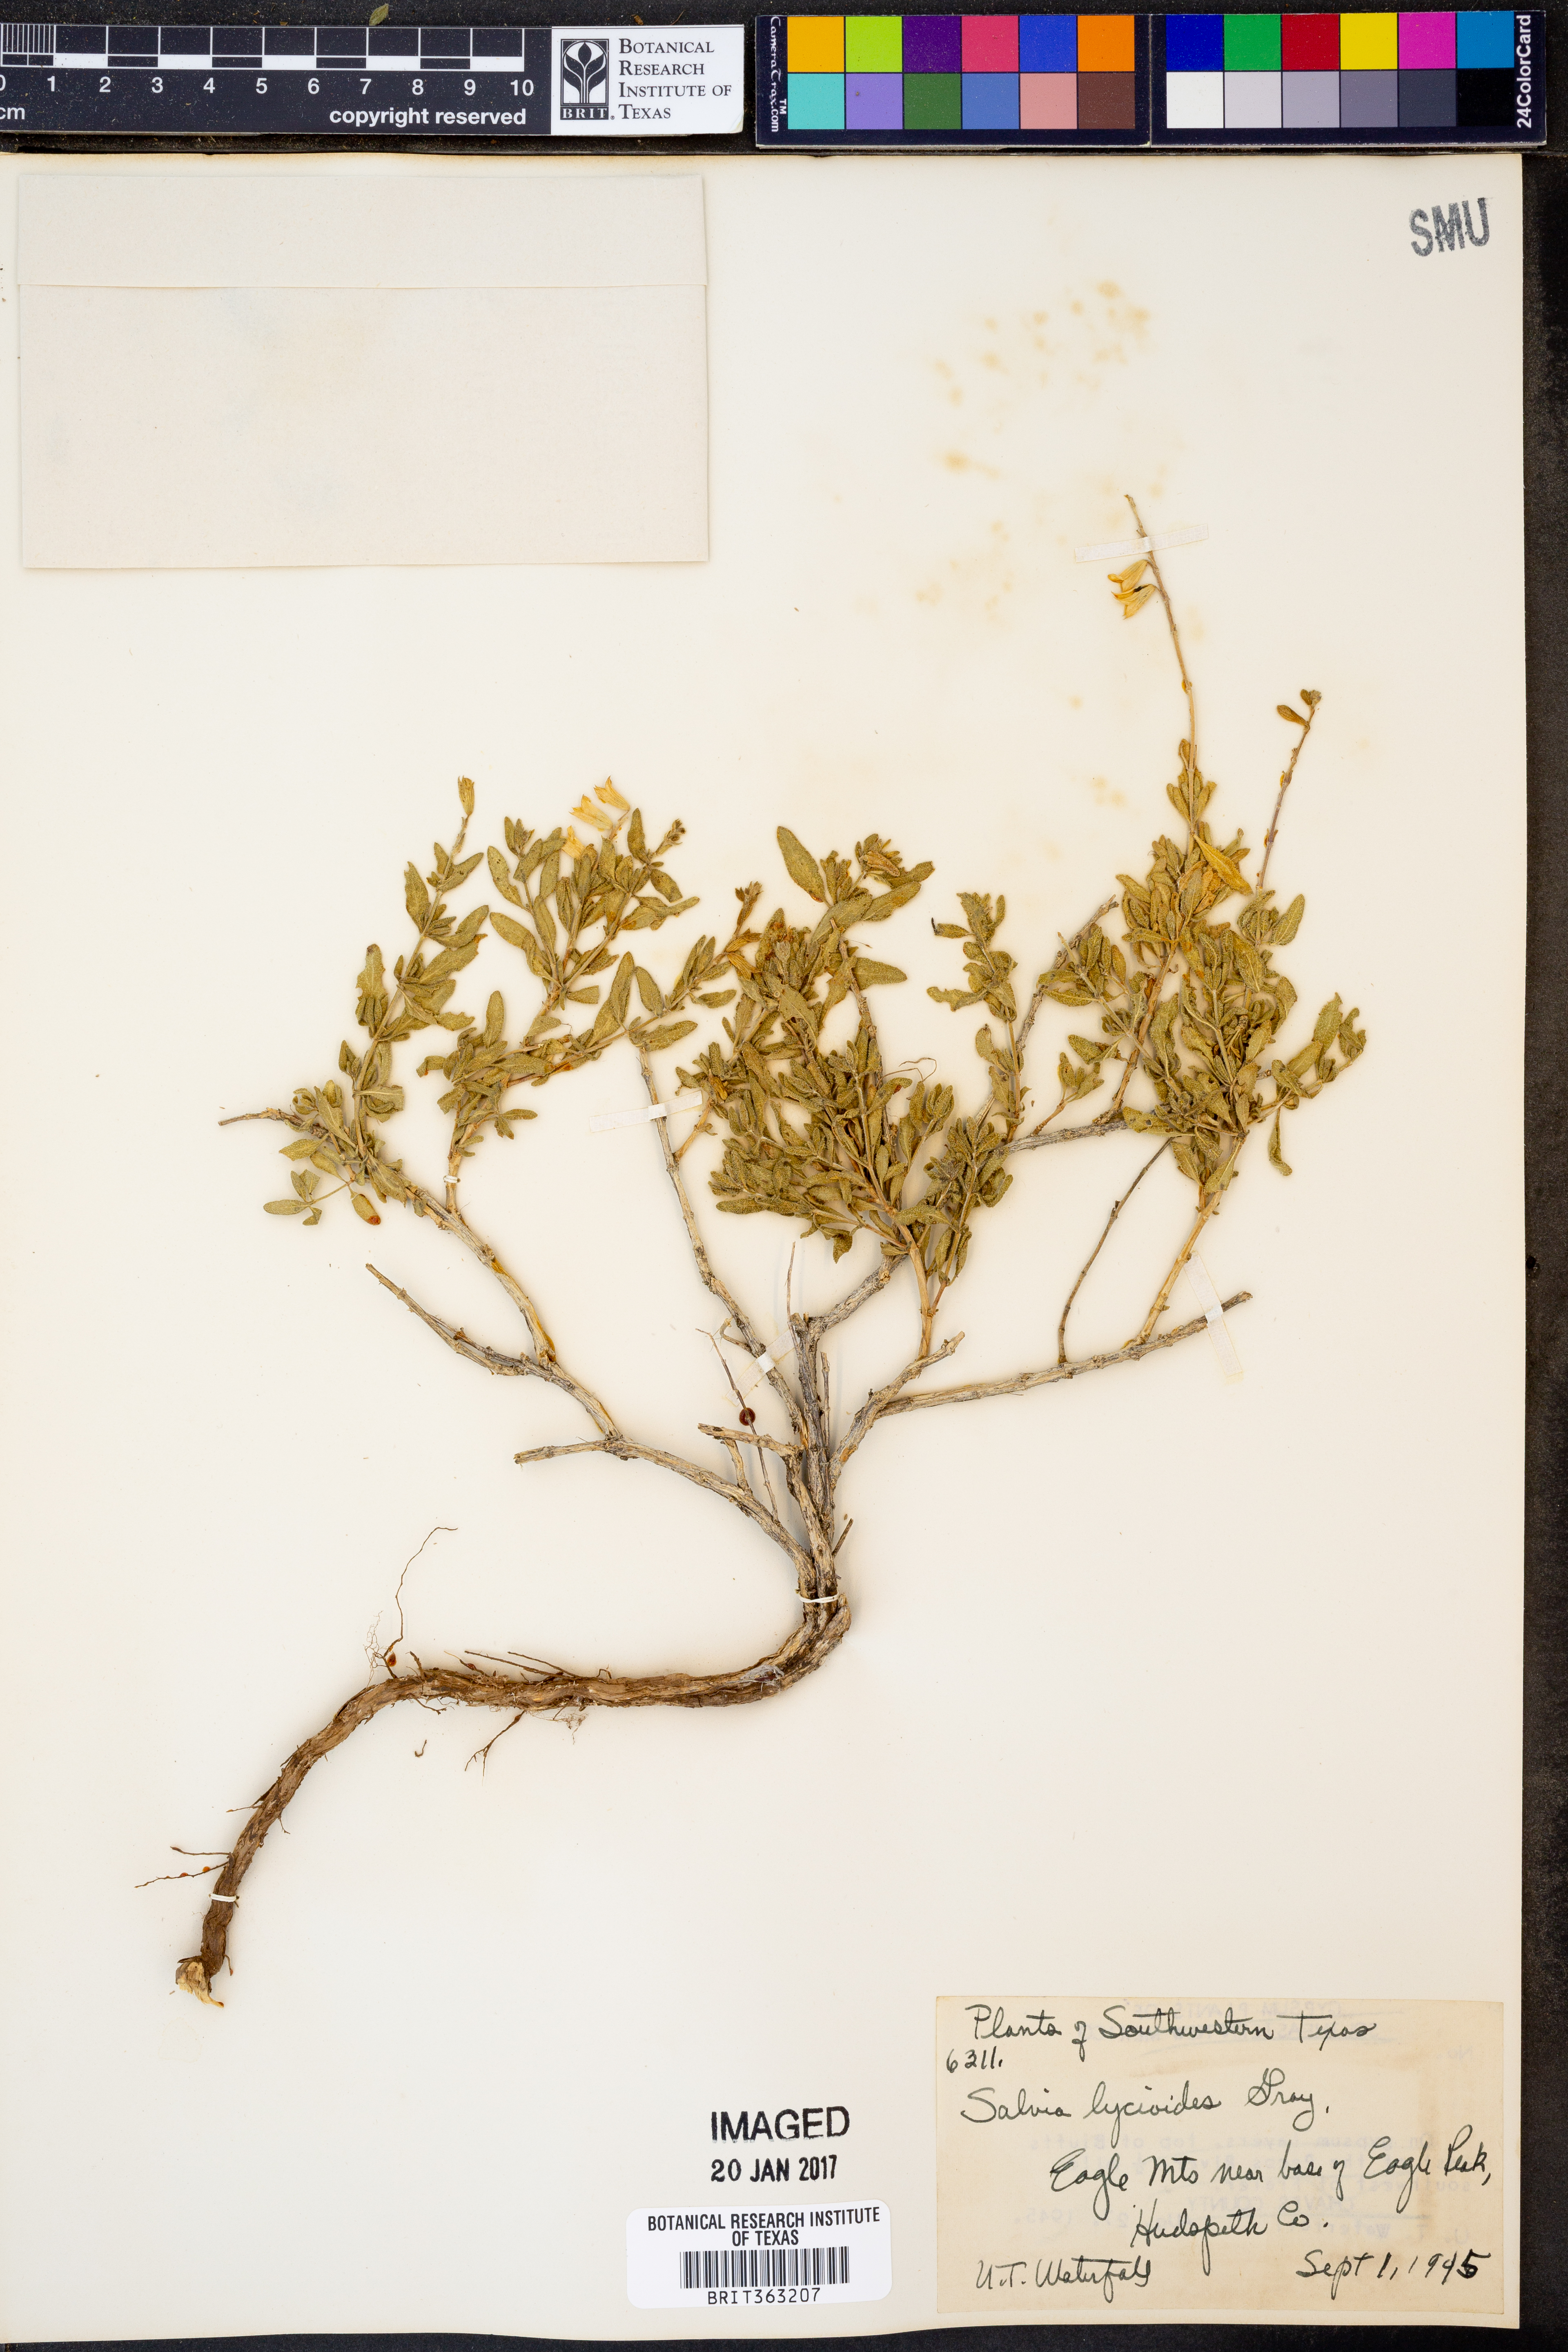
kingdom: Plantae
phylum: Tracheophyta
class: Magnoliopsida
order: Lamiales
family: Lamiaceae
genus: Salvia
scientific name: Salvia lycioides
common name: Canyon sage
